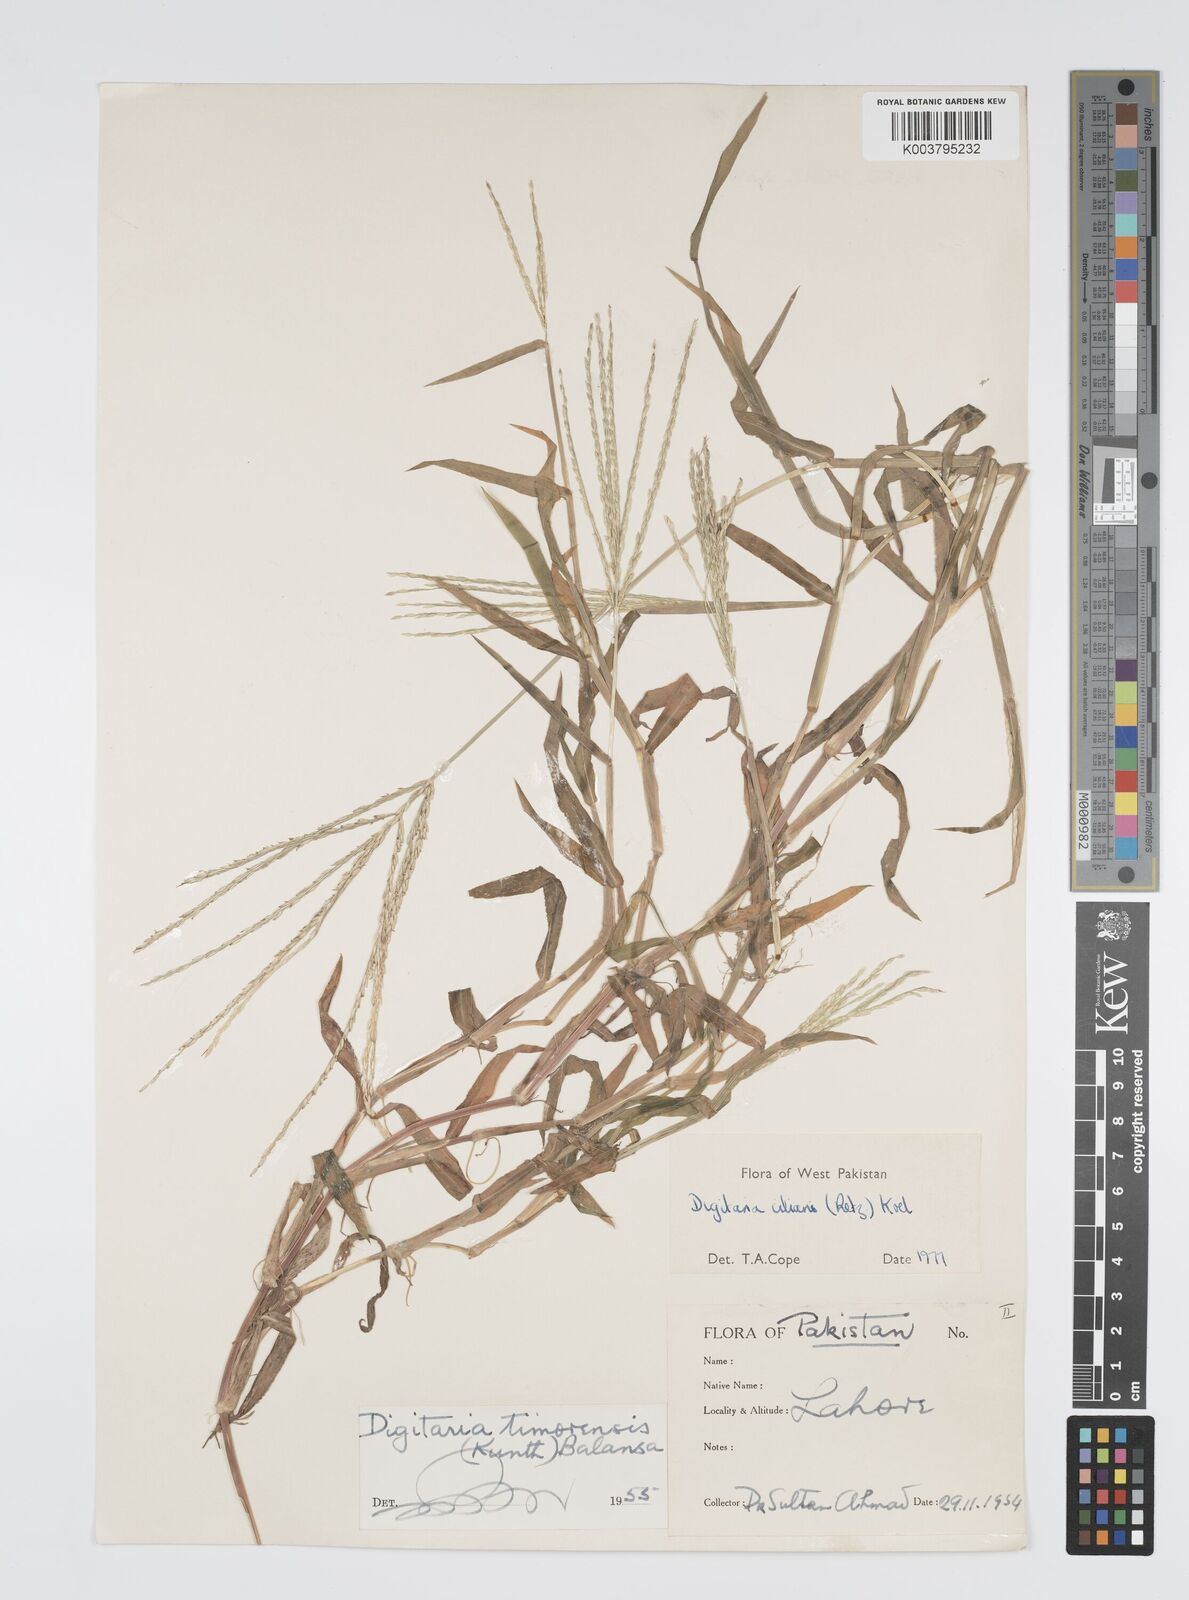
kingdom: Plantae
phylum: Tracheophyta
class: Liliopsida
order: Poales
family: Poaceae
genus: Digitaria
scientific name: Digitaria ciliaris
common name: Tropical finger-grass
